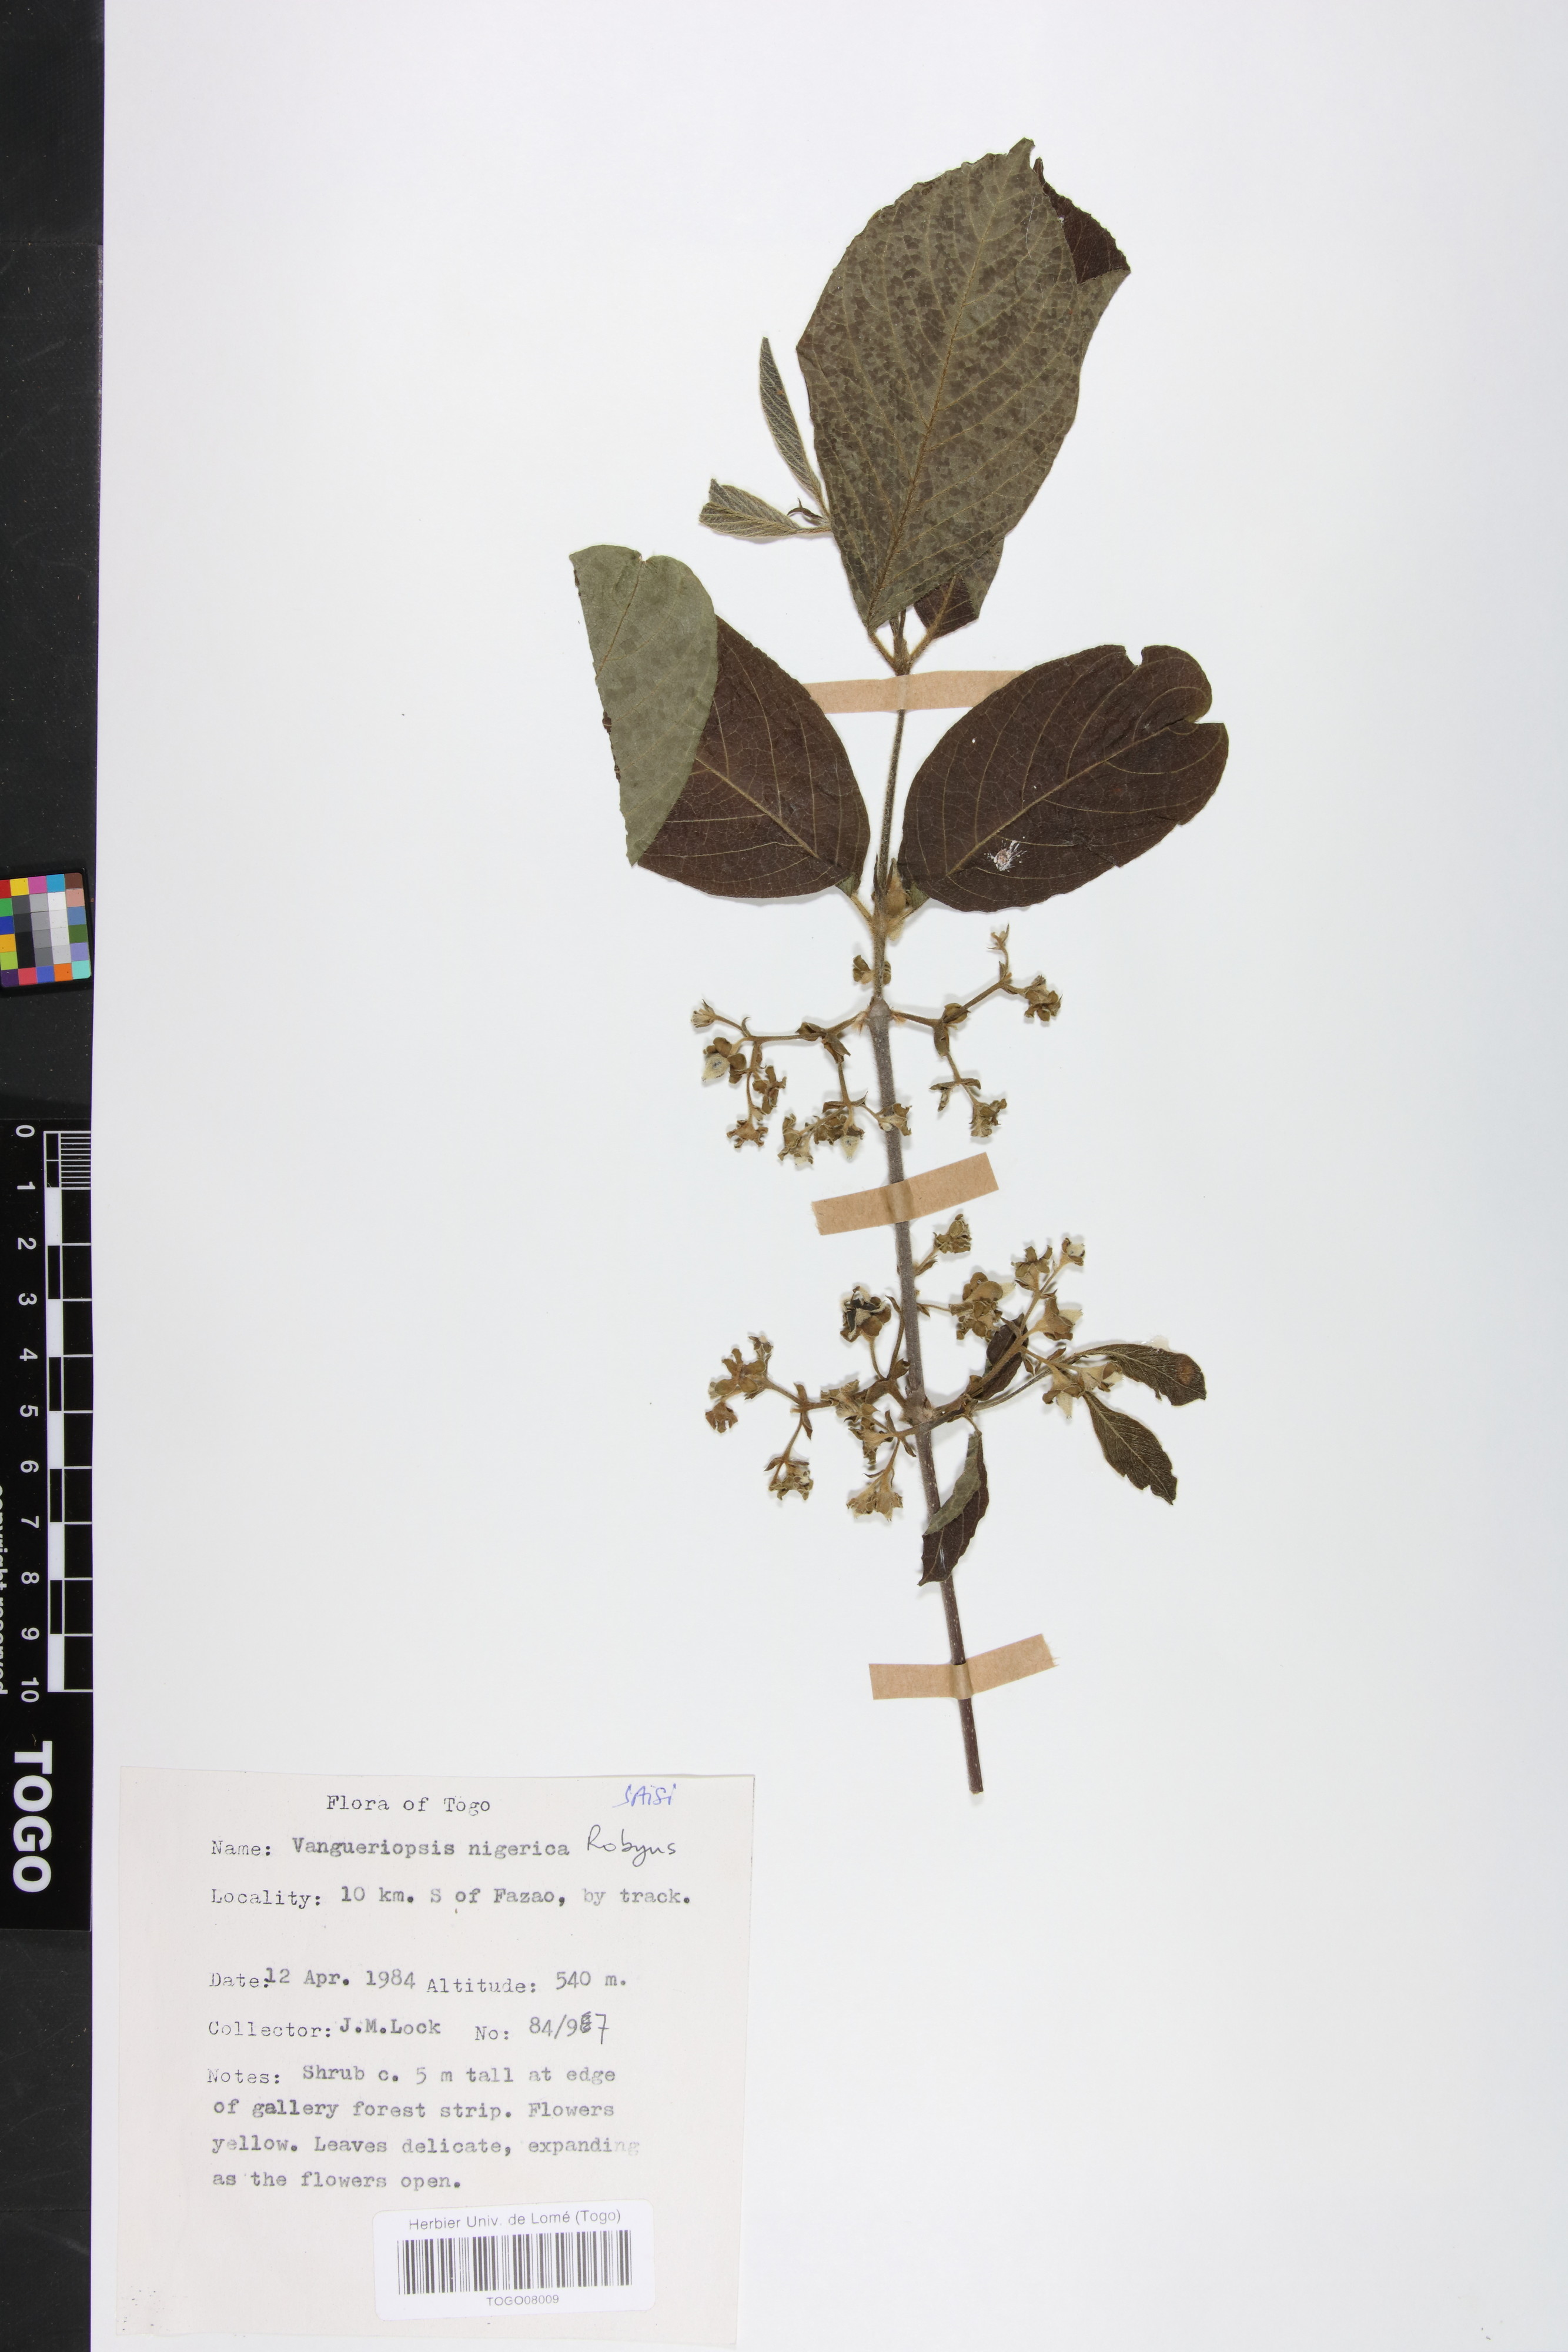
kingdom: Plantae
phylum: Tracheophyta
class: Magnoliopsida
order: Gentianales
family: Rubiaceae
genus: Vangueriella
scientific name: Vangueriella nigerica
